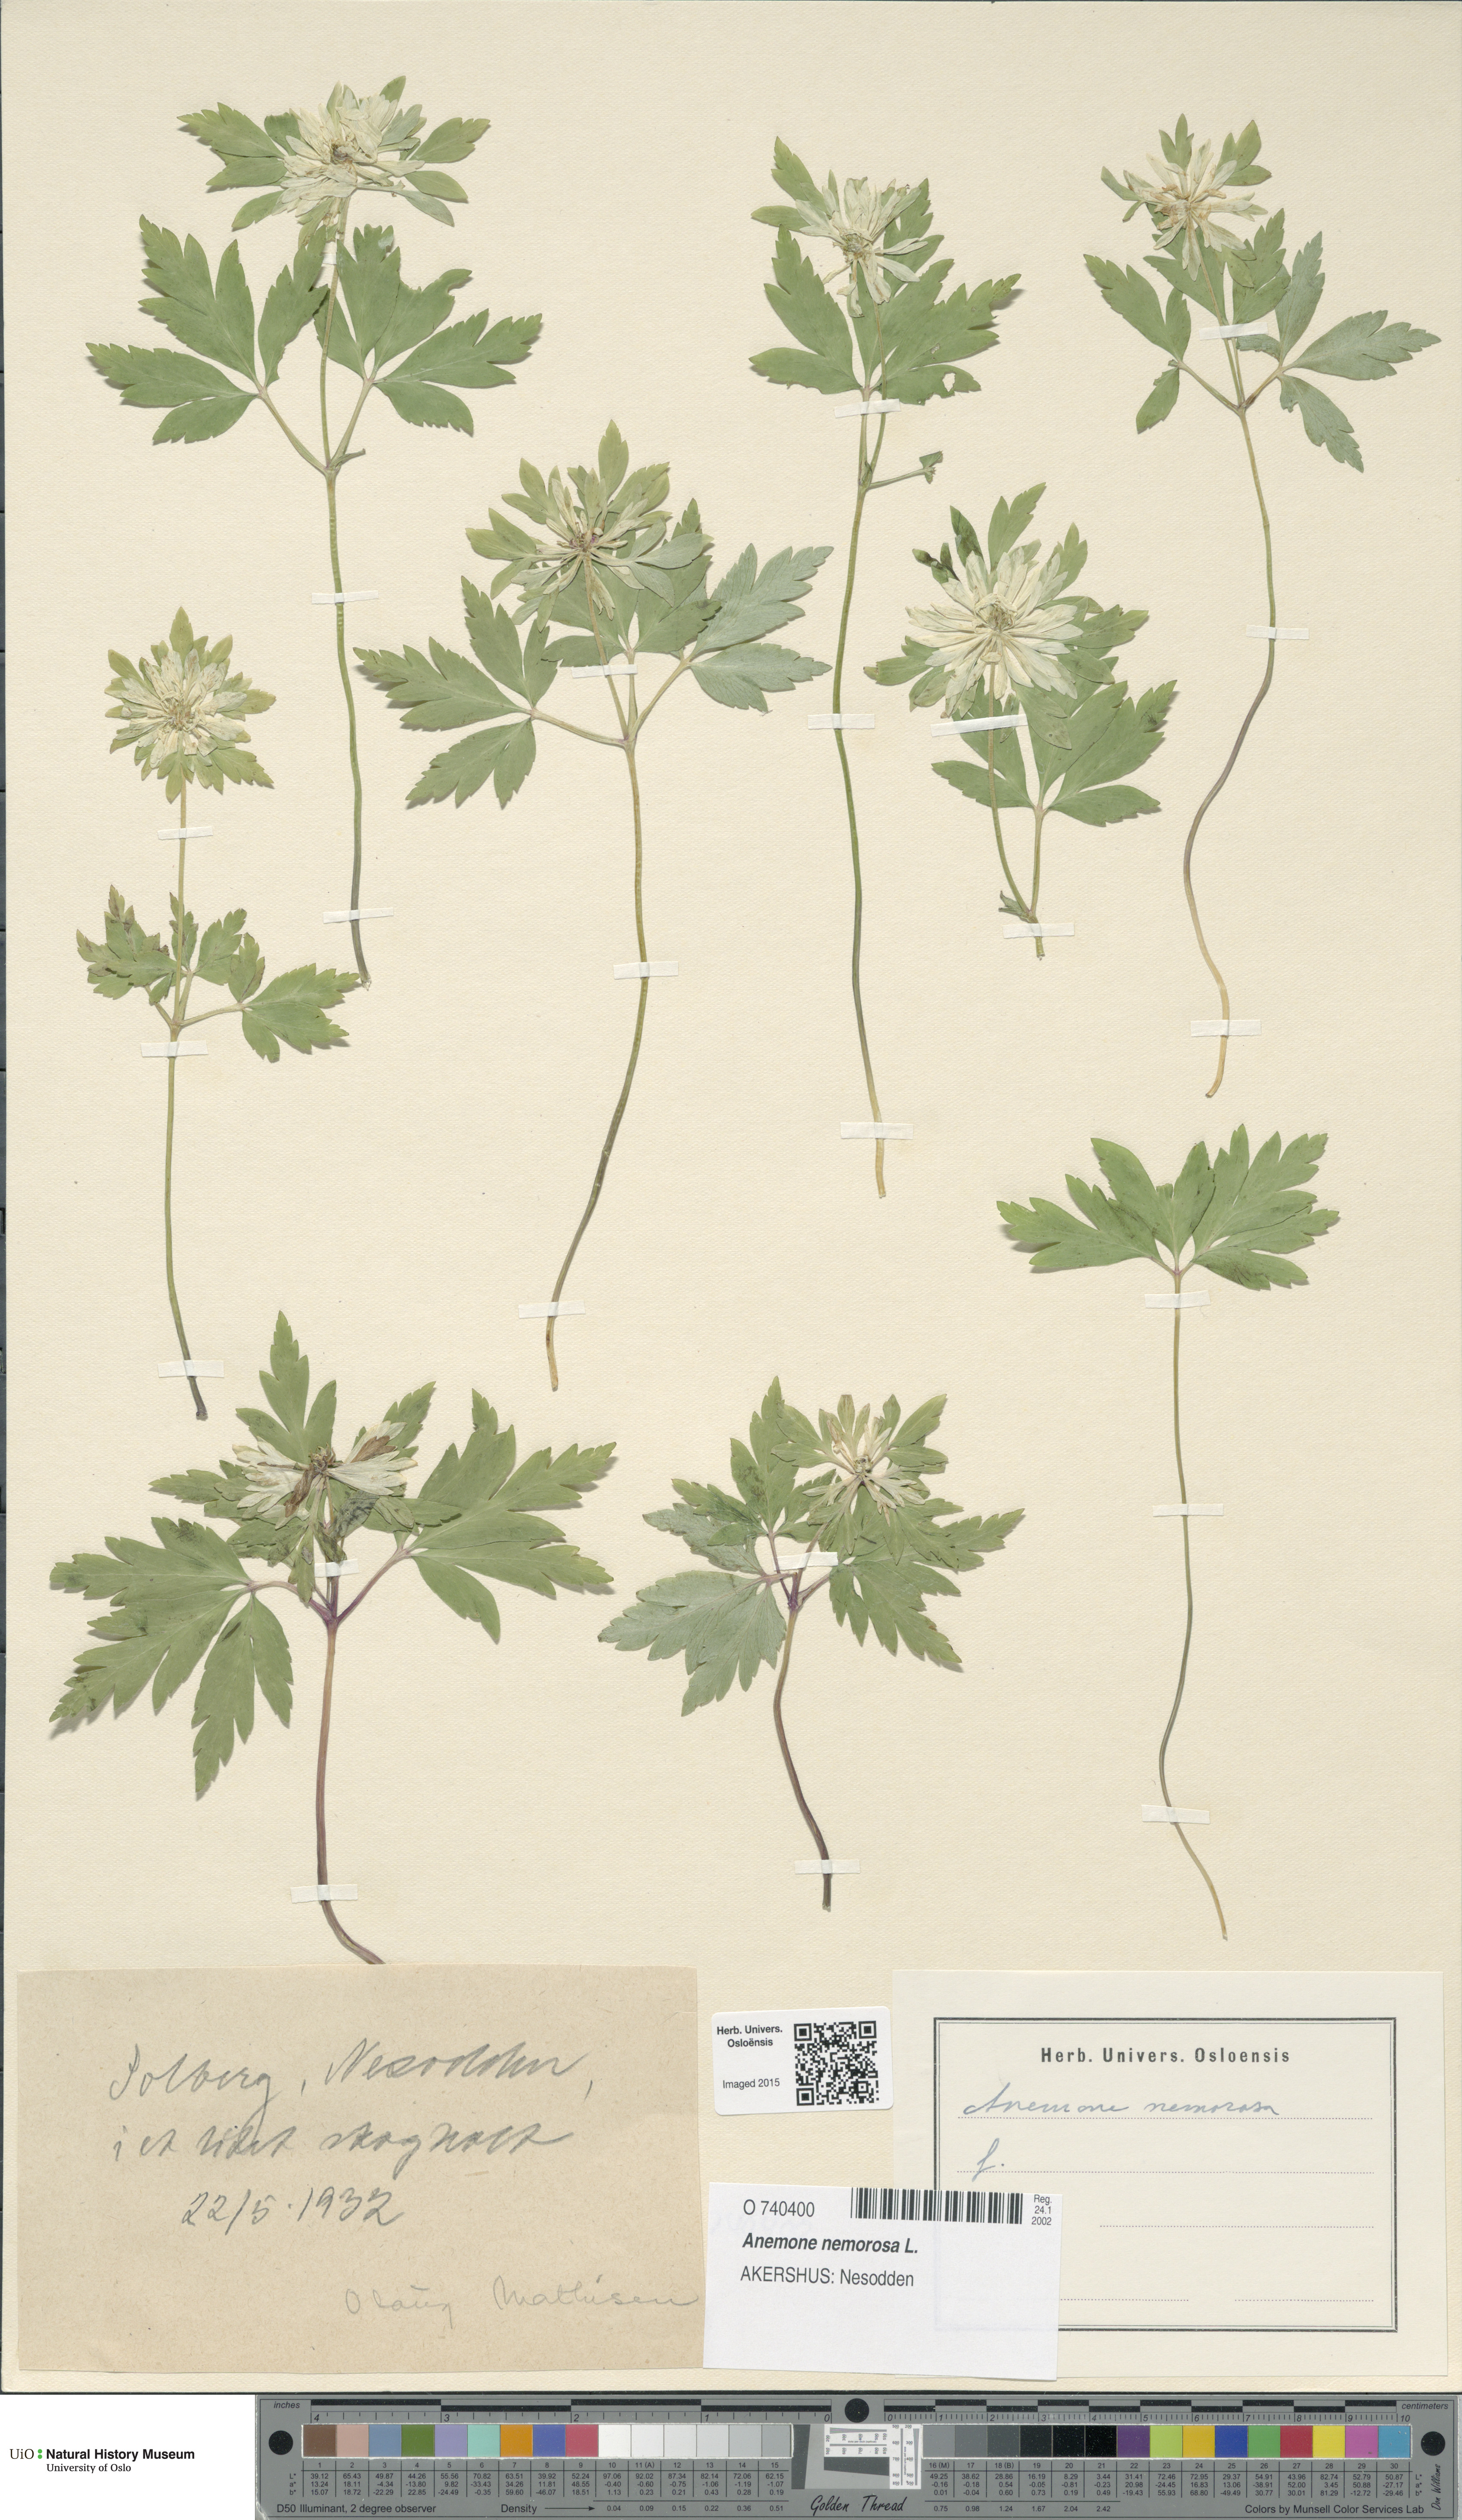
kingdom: Plantae
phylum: Tracheophyta
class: Magnoliopsida
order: Ranunculales
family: Ranunculaceae
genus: Anemone
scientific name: Anemone nemorosa
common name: Wood anemone
